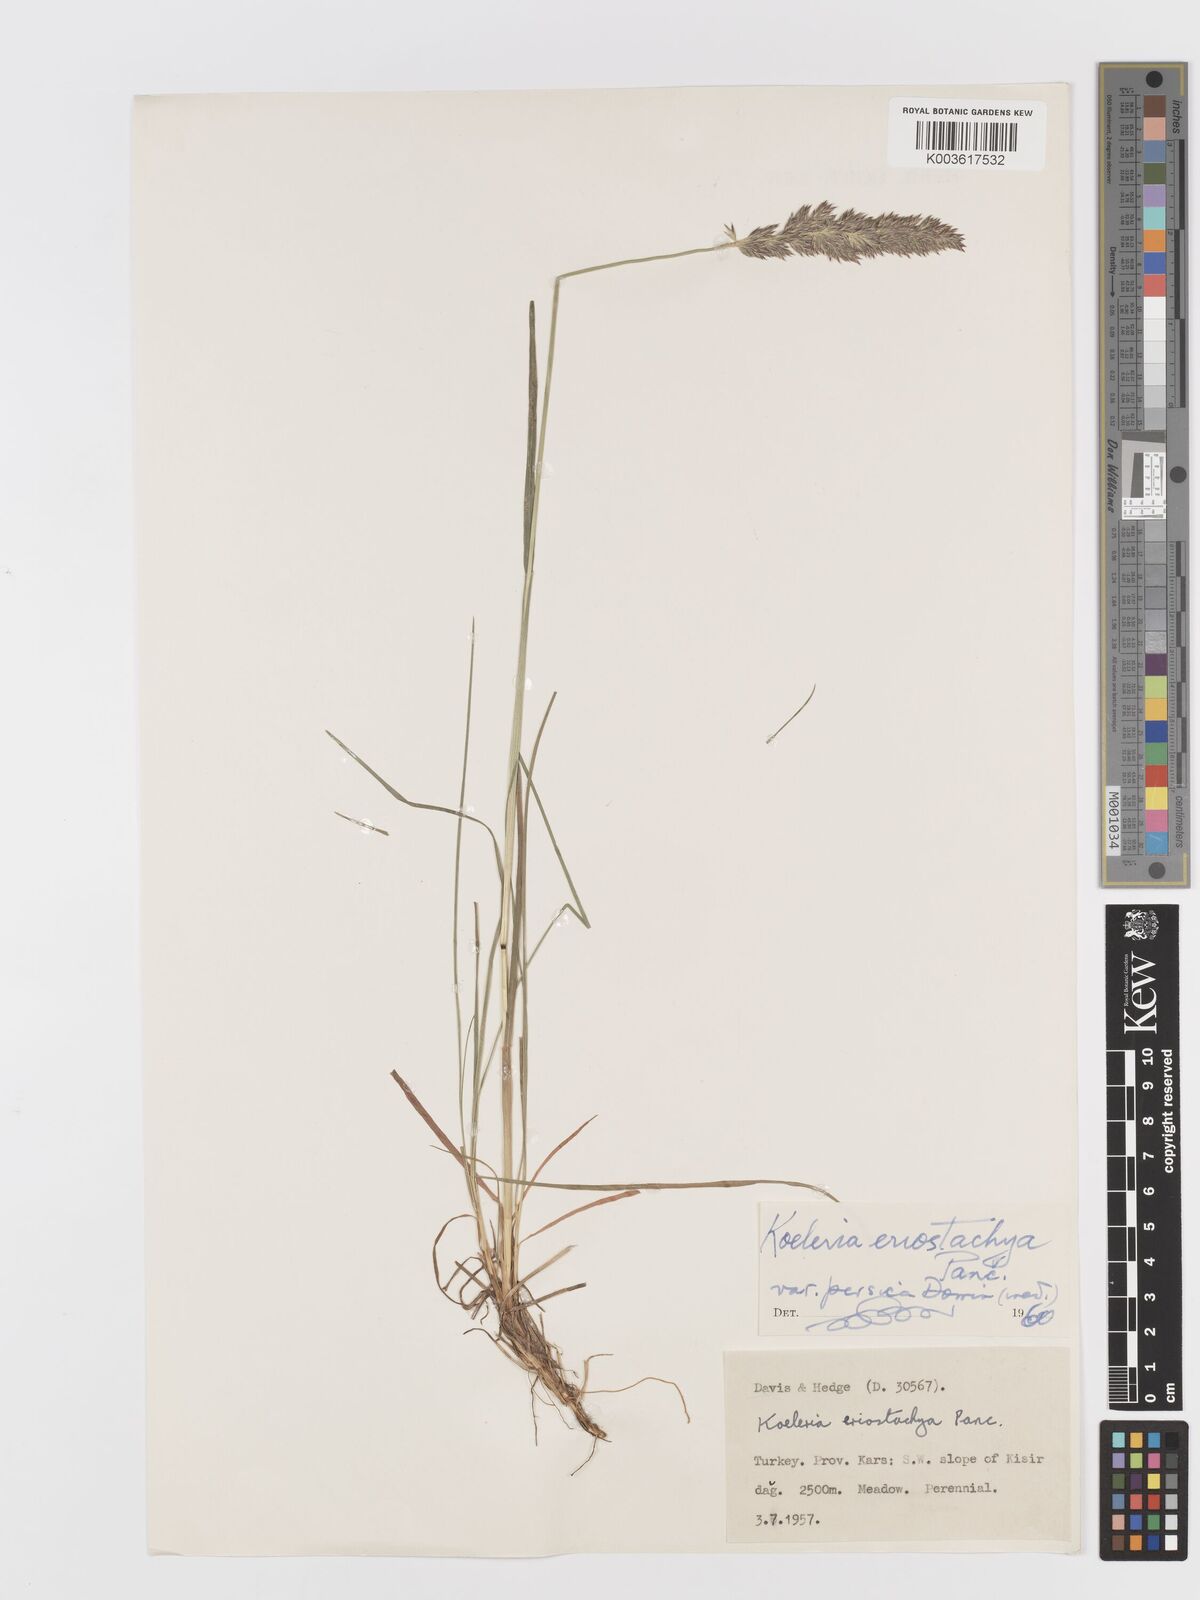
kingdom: Plantae
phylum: Tracheophyta
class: Liliopsida
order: Poales
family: Poaceae
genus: Koeleria
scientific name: Koeleria eriostachya
